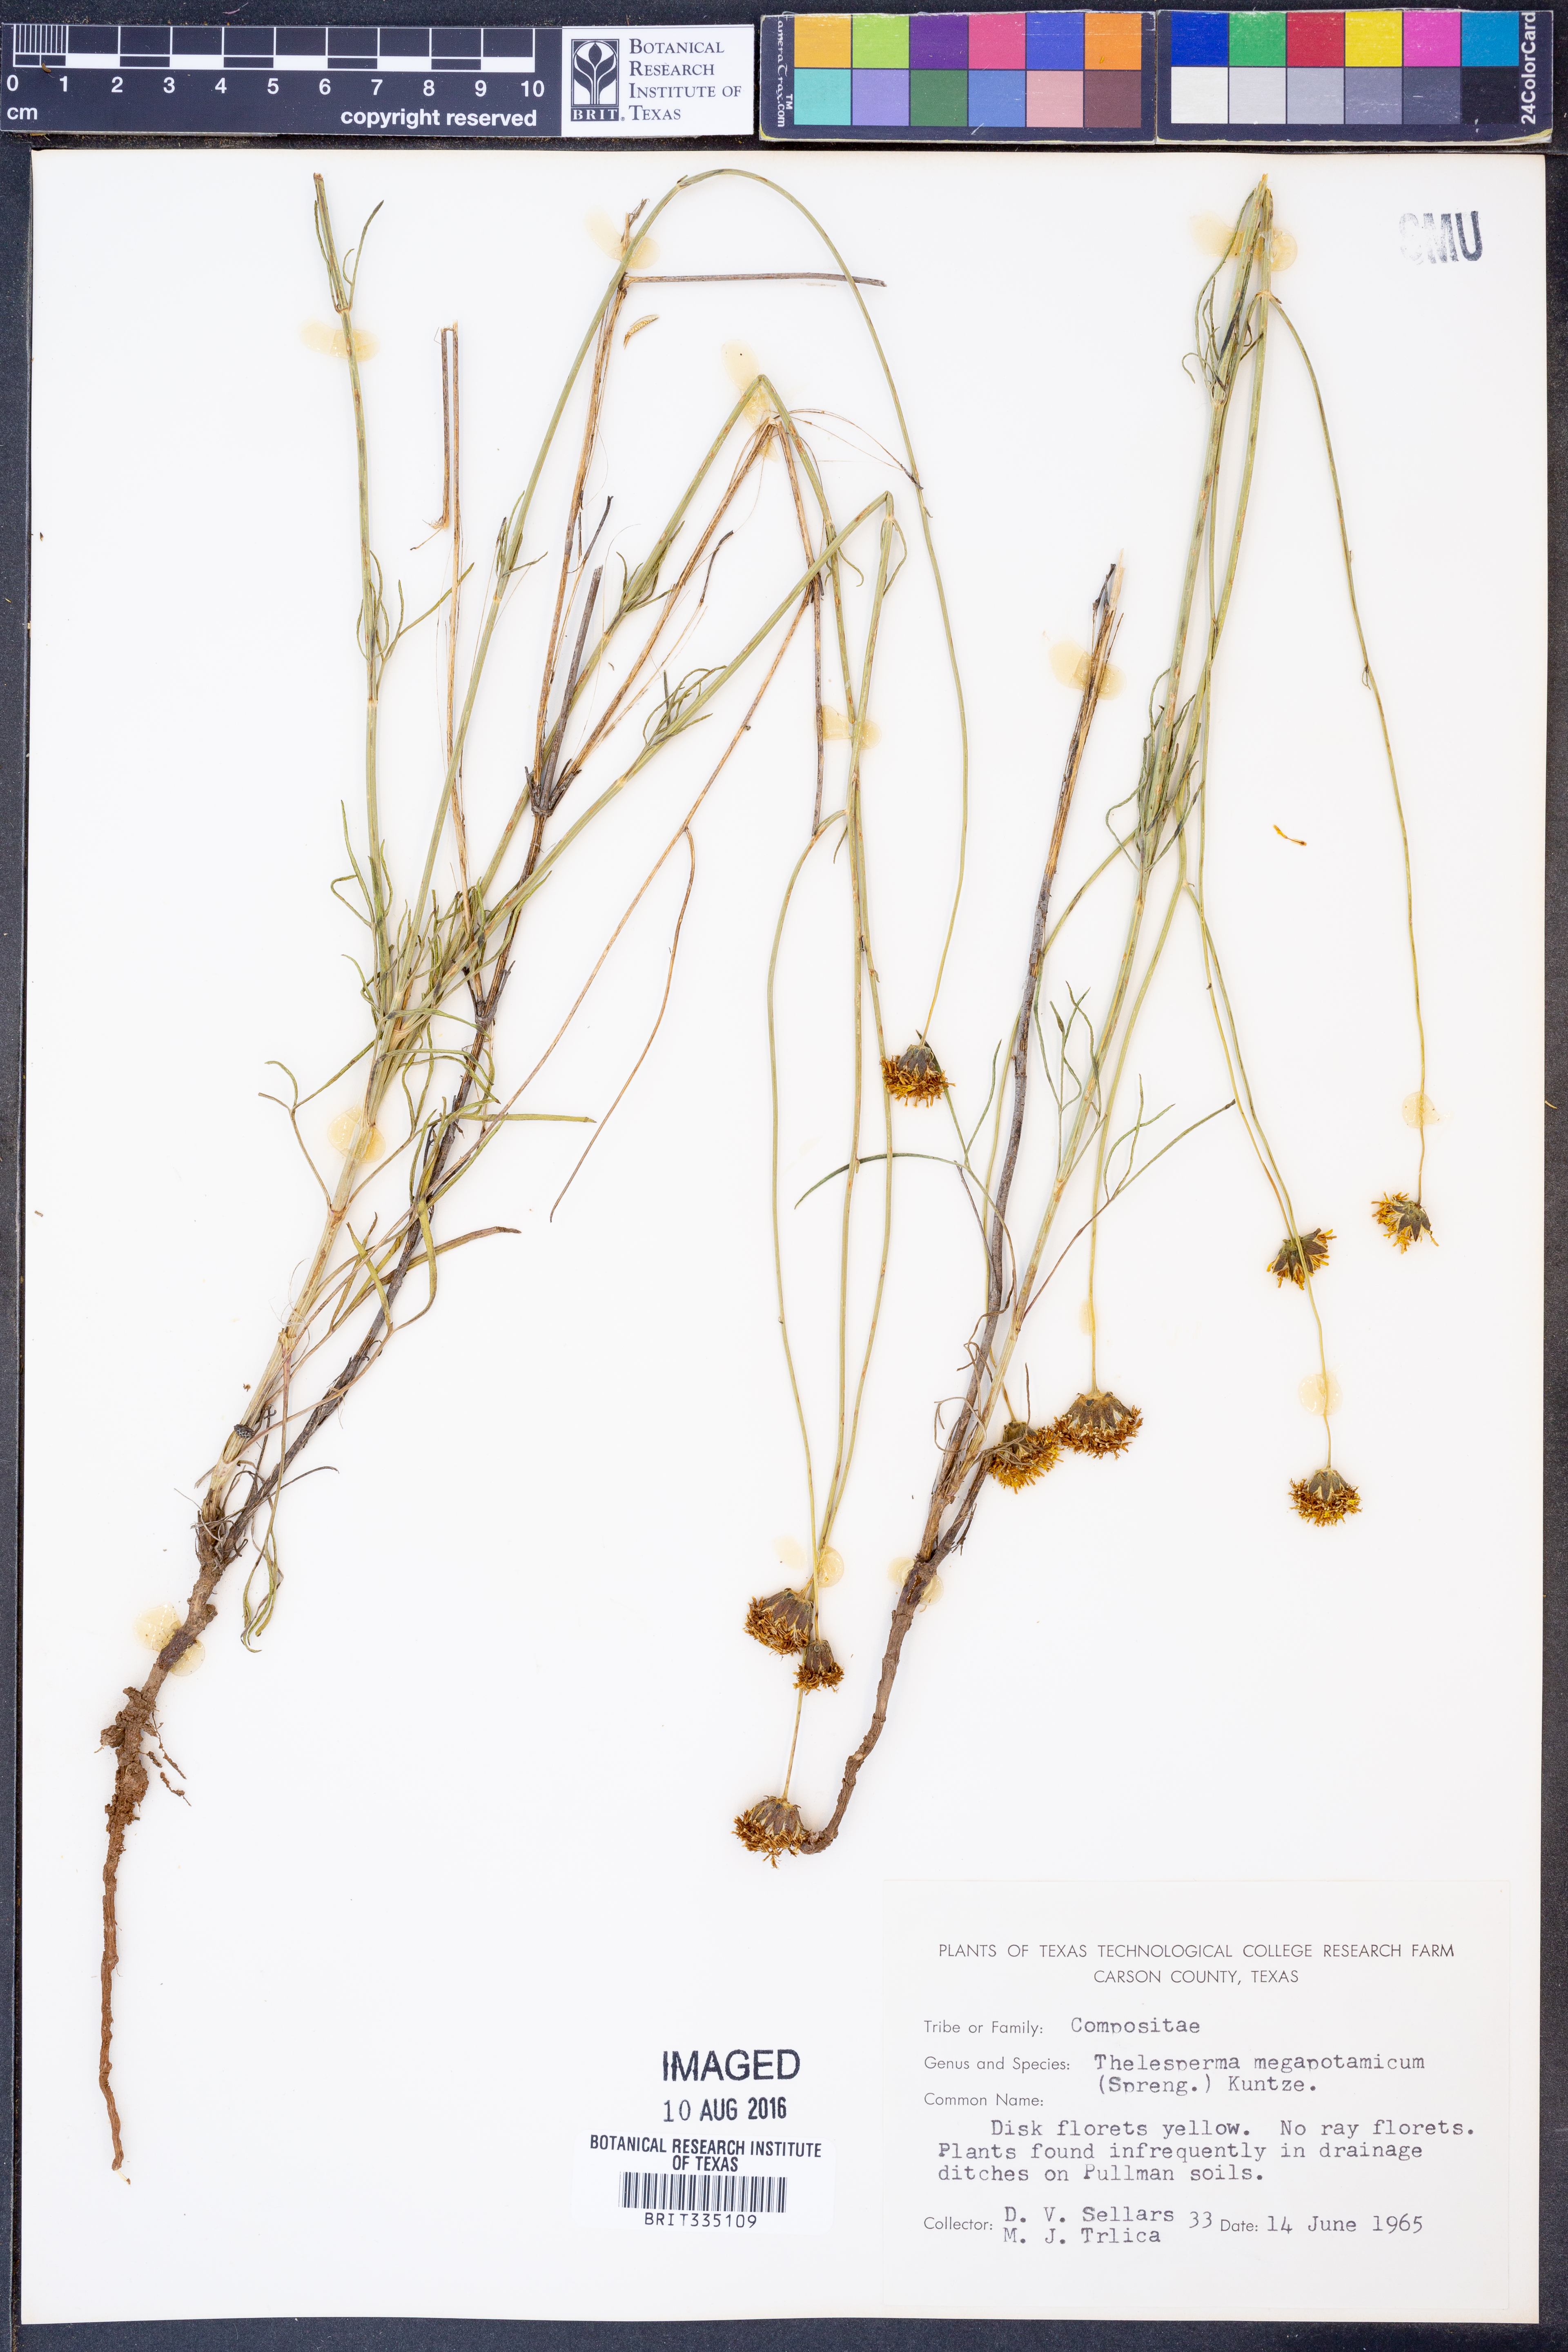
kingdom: Plantae
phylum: Tracheophyta
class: Magnoliopsida
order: Asterales
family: Asteraceae
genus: Thelesperma
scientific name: Thelesperma megapotamicum
